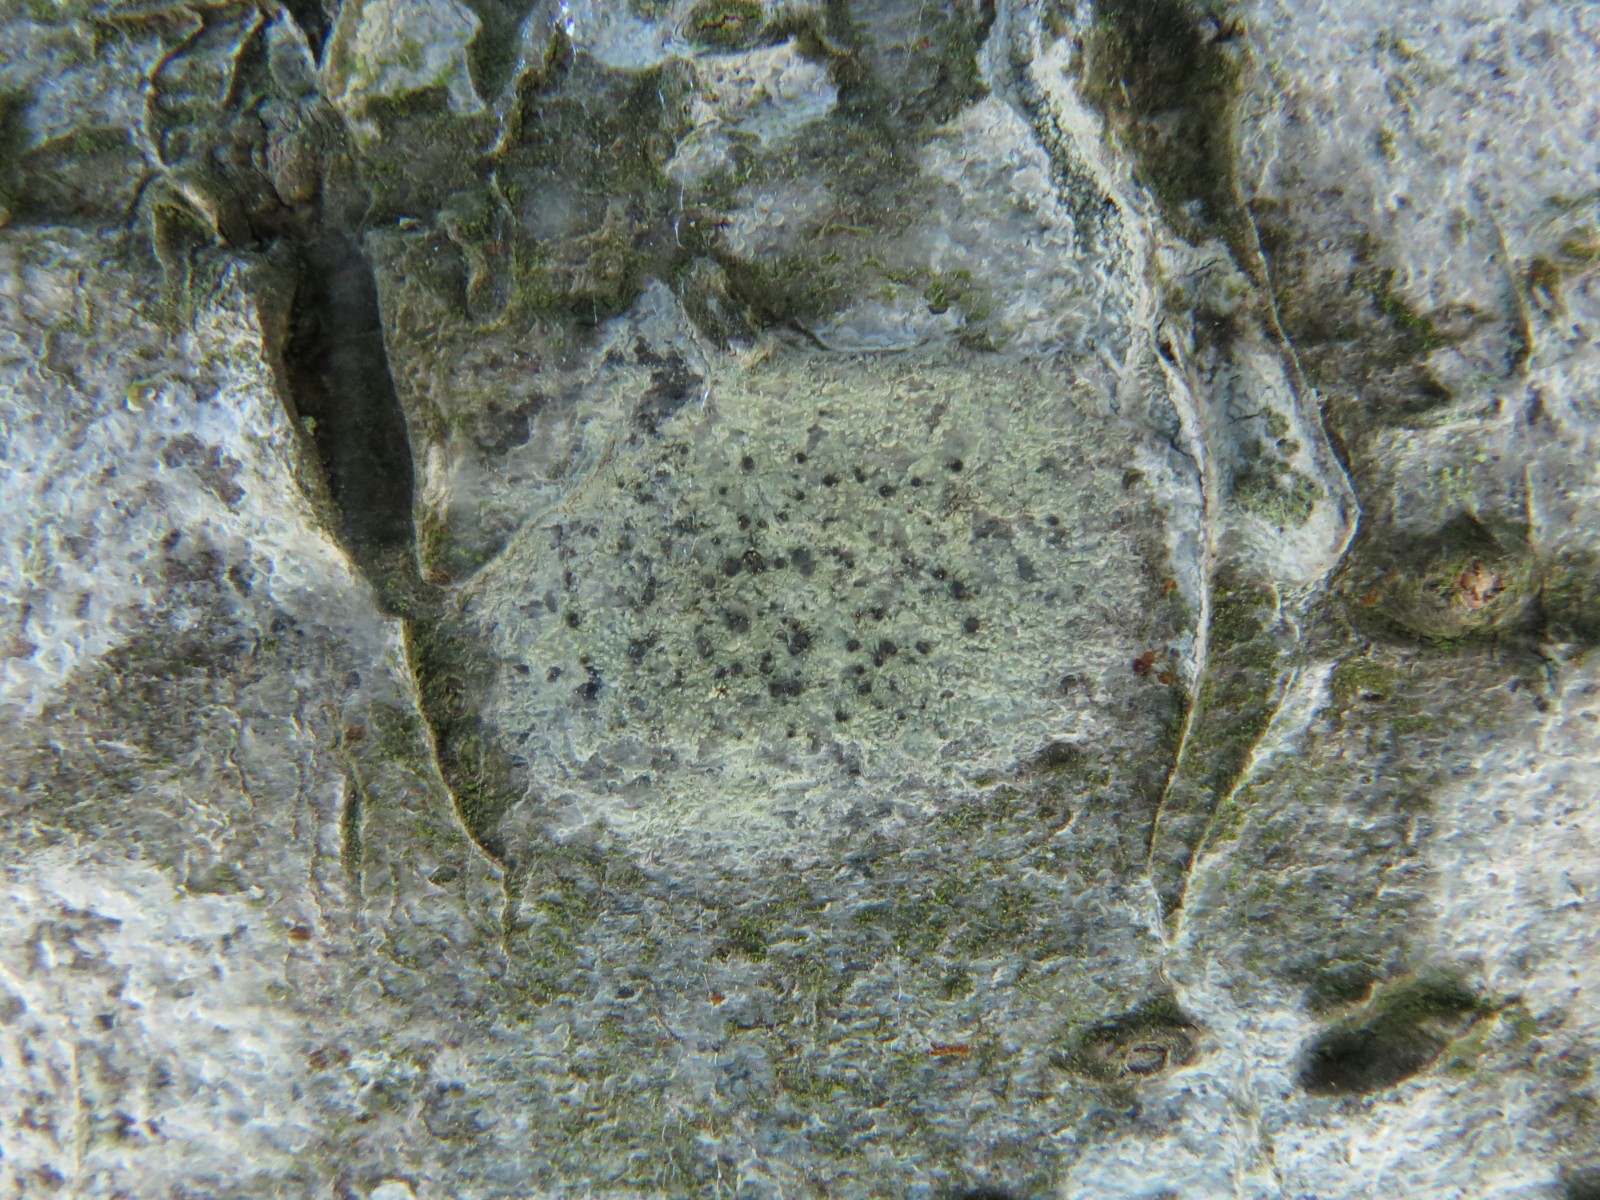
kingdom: Fungi
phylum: Ascomycota
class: Lecanoromycetes
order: Lecanorales
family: Lecanoraceae
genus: Lecidella
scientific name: Lecidella elaeochroma
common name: grågrøn skivelav
